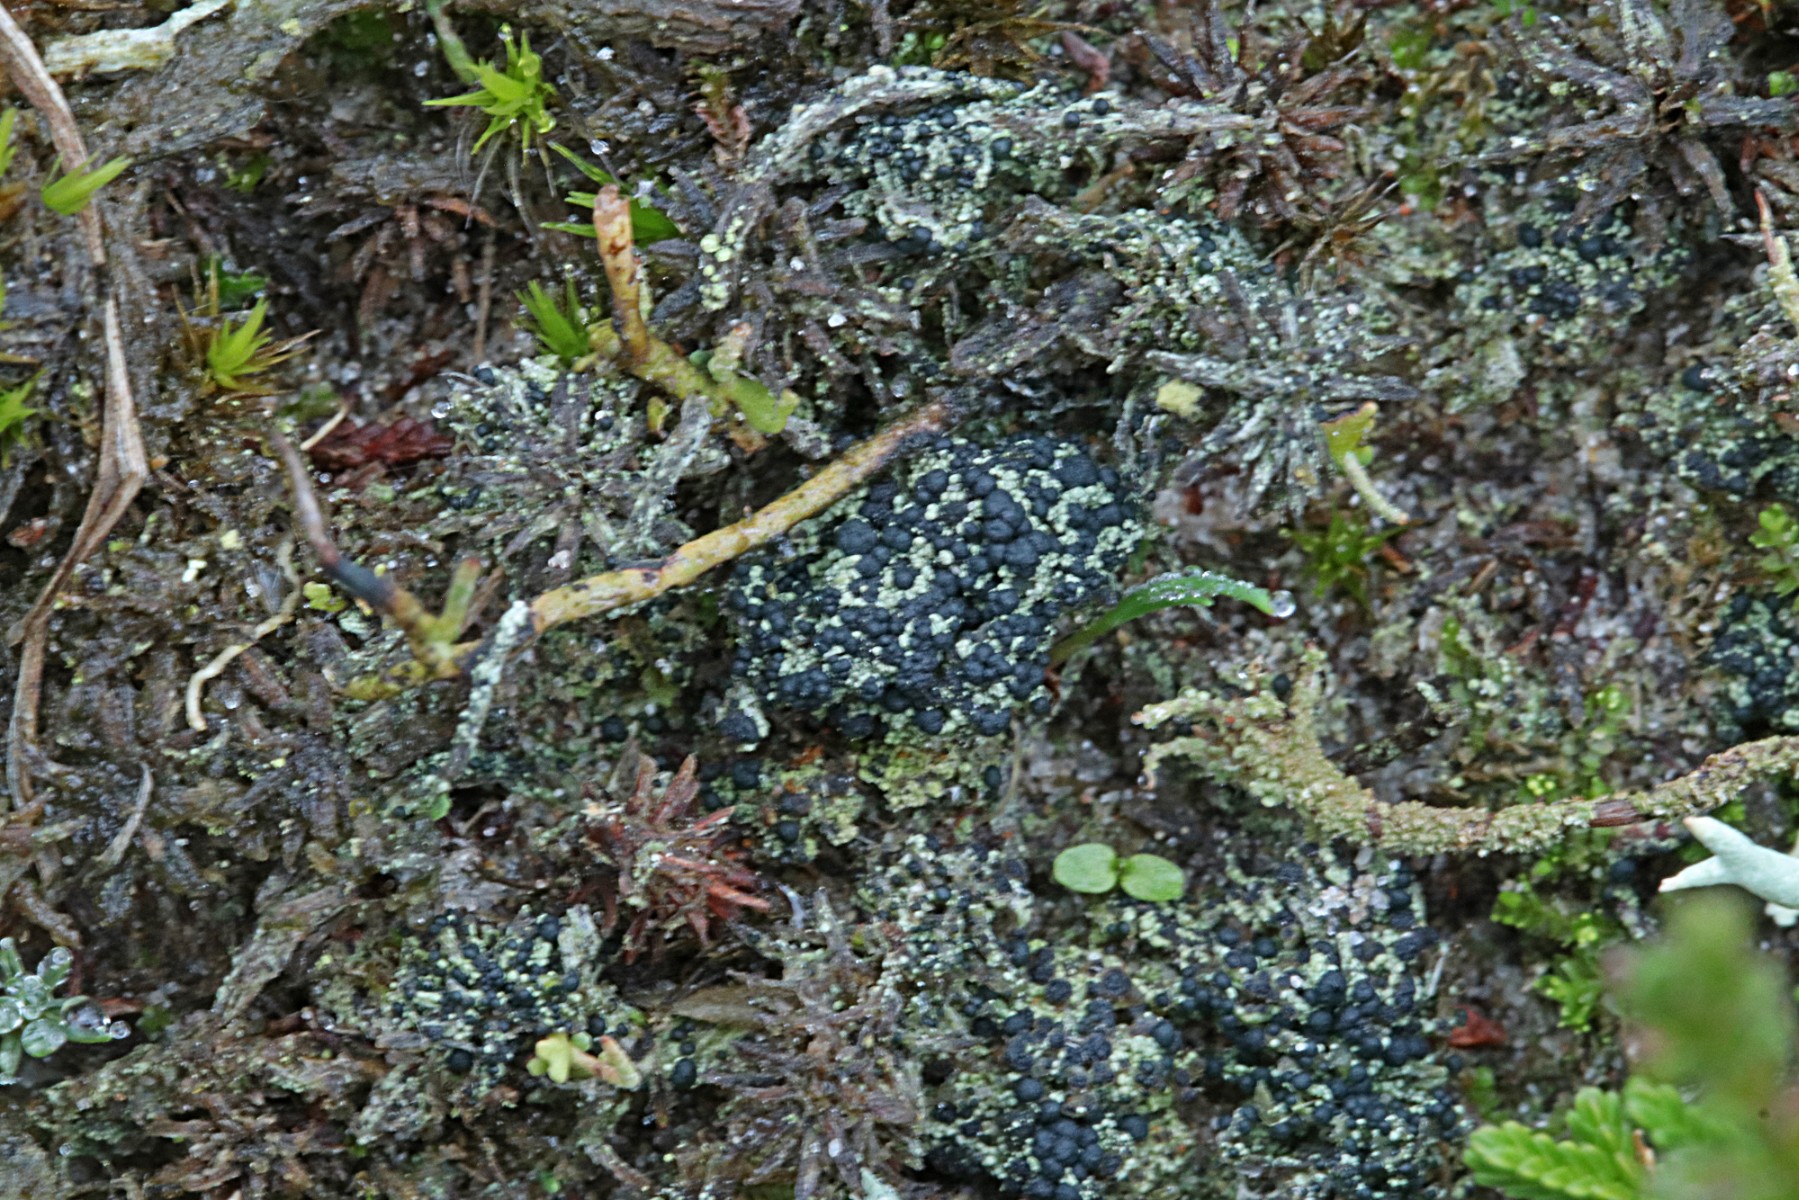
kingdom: Fungi
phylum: Ascomycota
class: Lecanoromycetes
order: Lecanorales
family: Byssolomataceae
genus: Micarea
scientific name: Micarea lignaria
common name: tørve-knaplav
